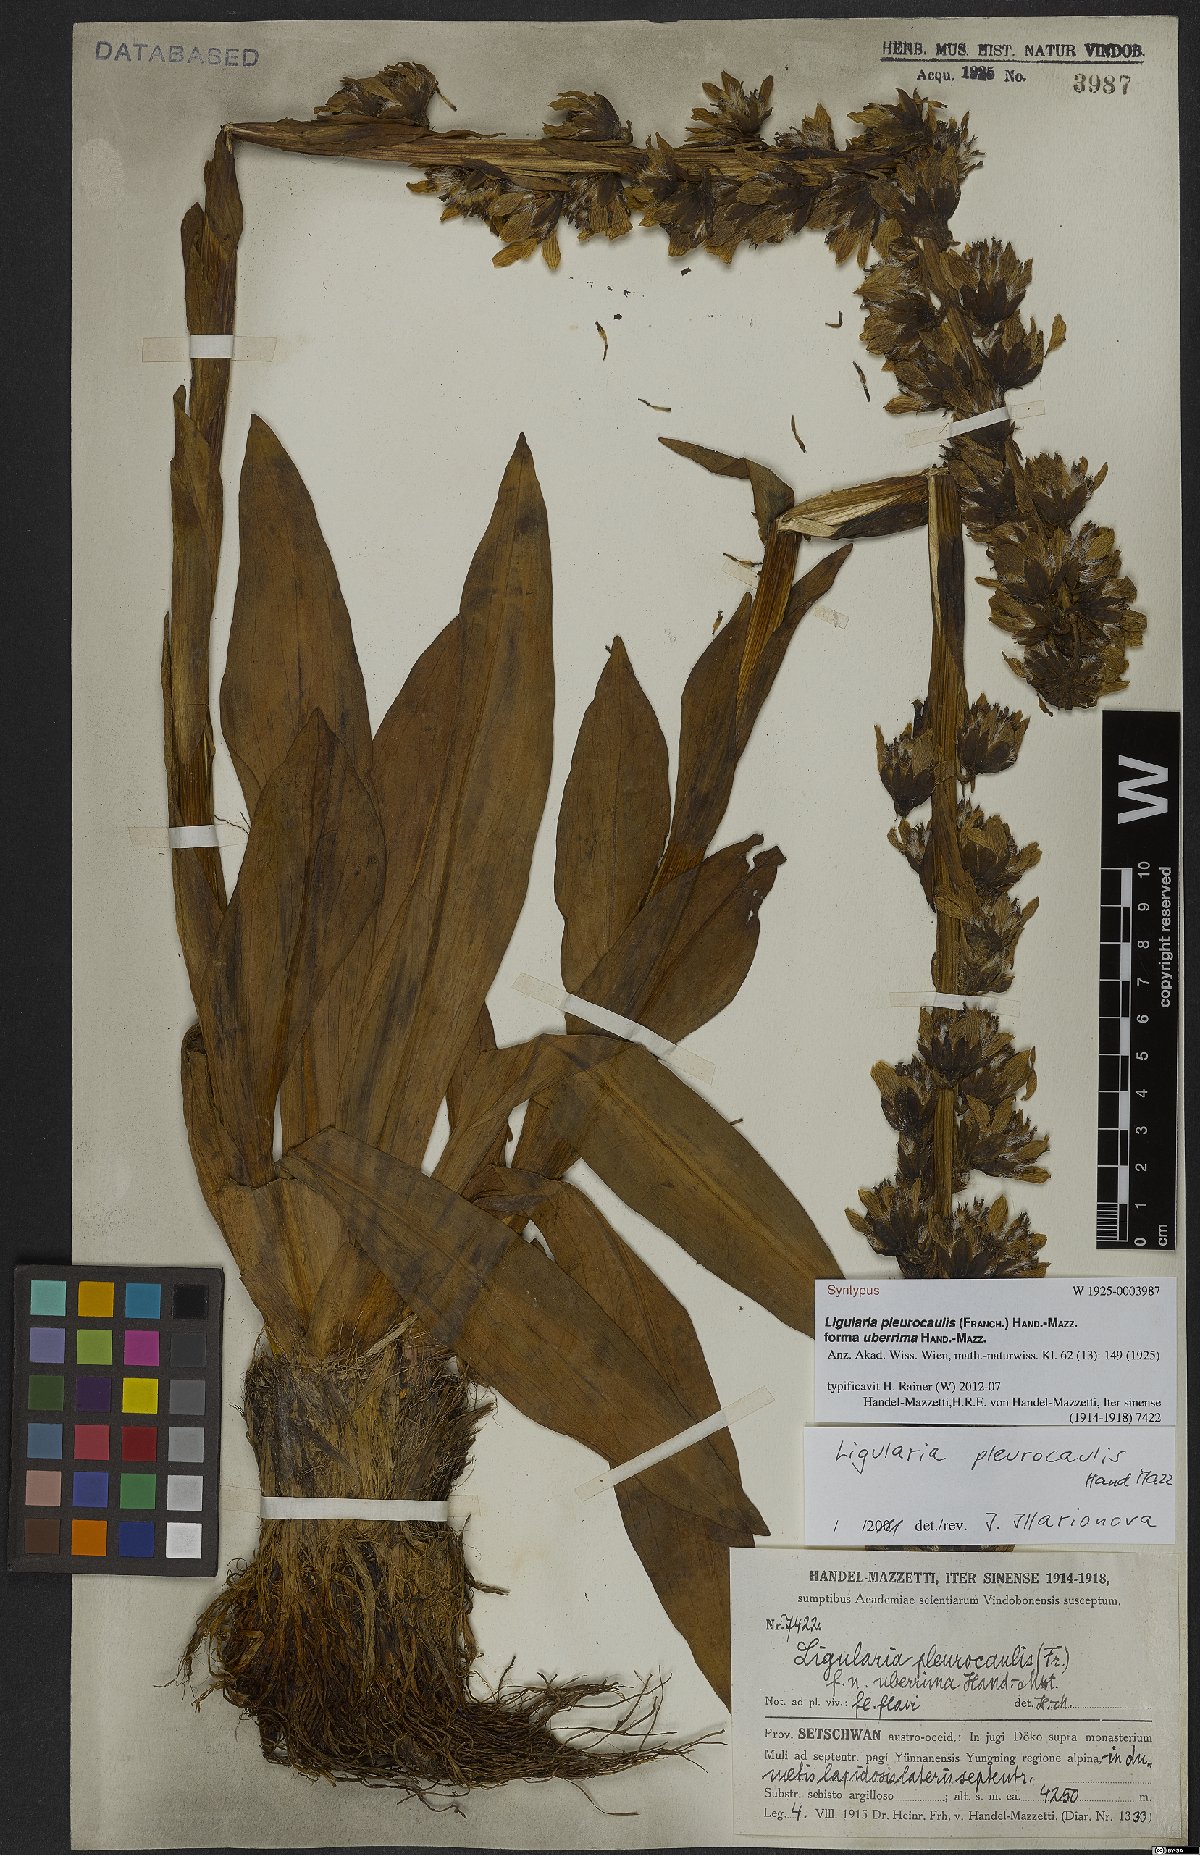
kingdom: Plantae
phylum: Tracheophyta
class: Magnoliopsida
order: Asterales
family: Asteraceae
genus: Ligularia
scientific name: Ligularia pleurocaulis
